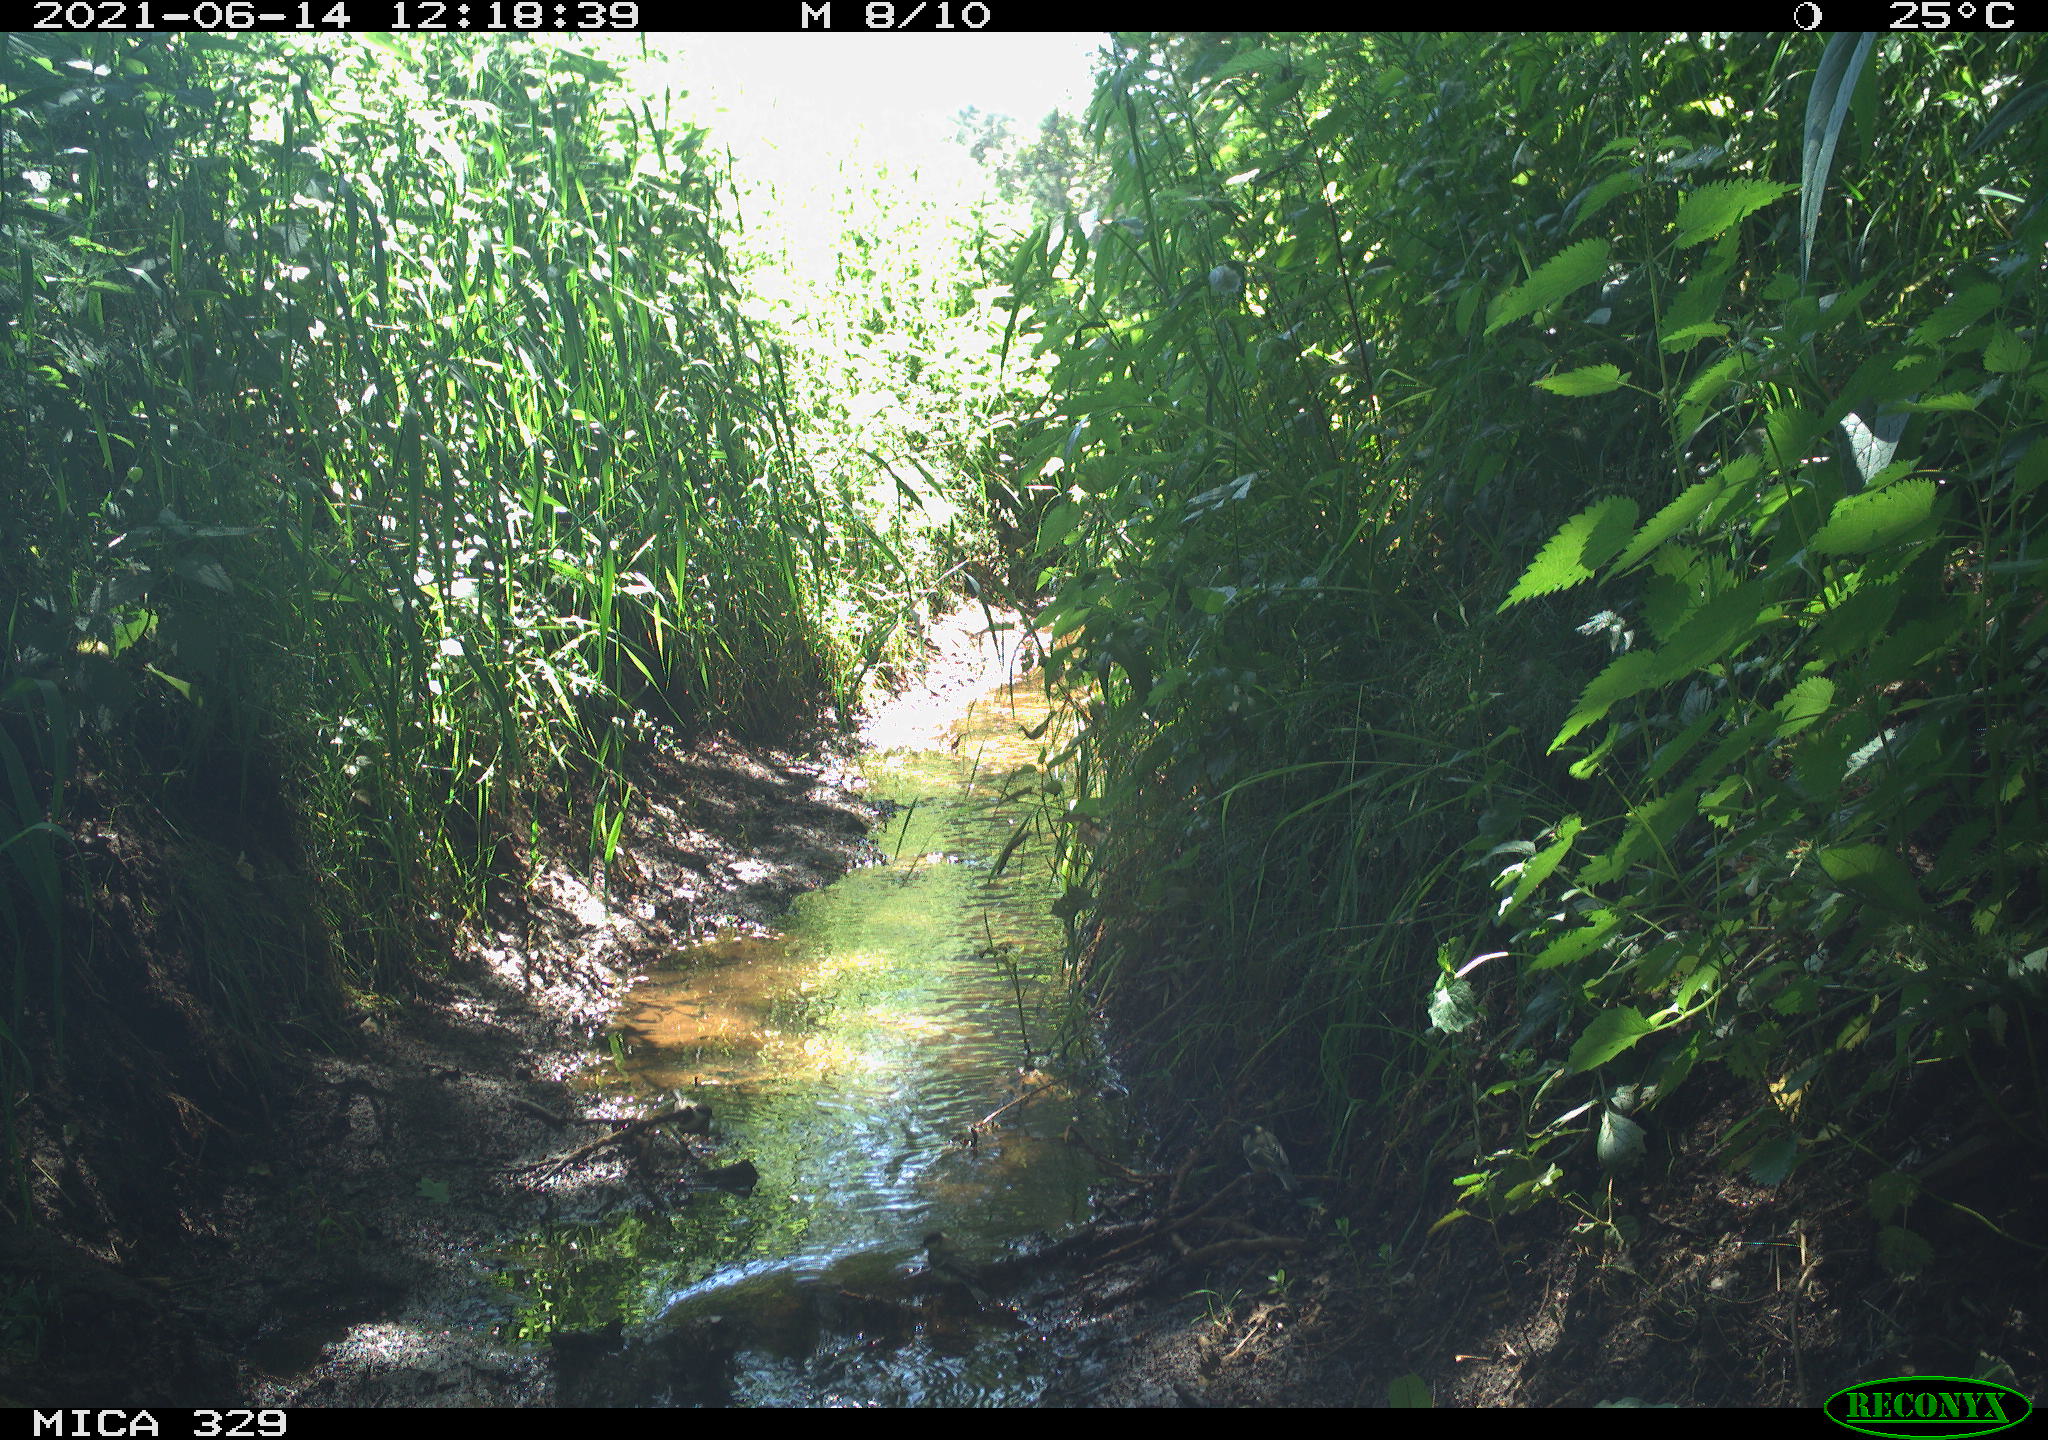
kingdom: Animalia
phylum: Chordata
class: Aves
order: Passeriformes
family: Paridae
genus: Parus
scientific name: Parus major
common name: Great tit
